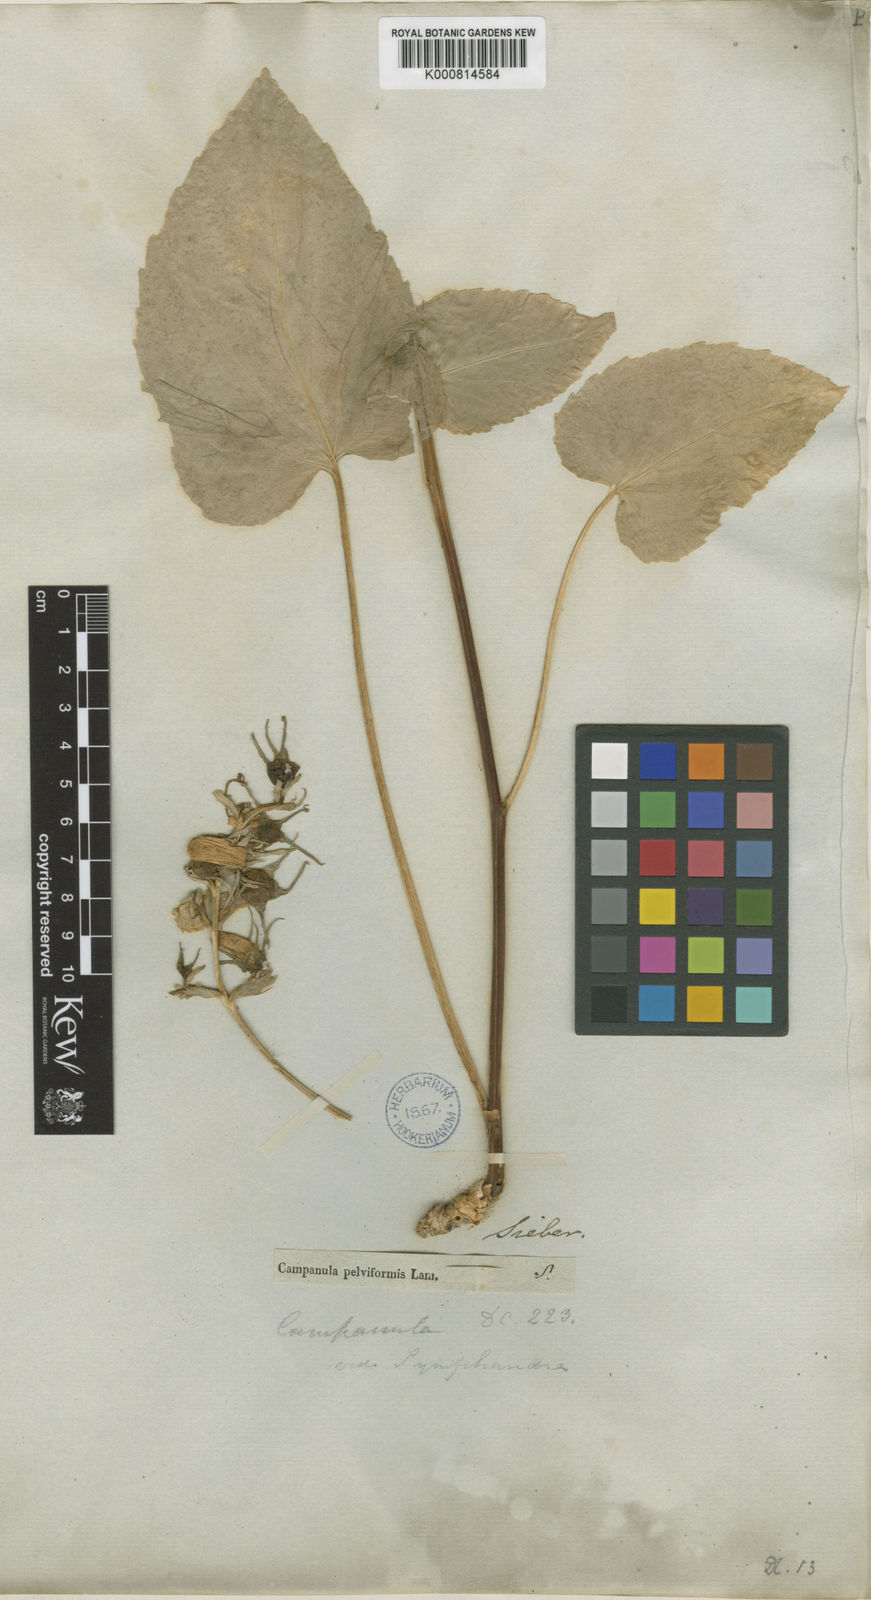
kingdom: Plantae
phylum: Tracheophyta
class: Magnoliopsida
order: Asterales
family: Campanulaceae
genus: Campanula
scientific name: Campanula cretica
